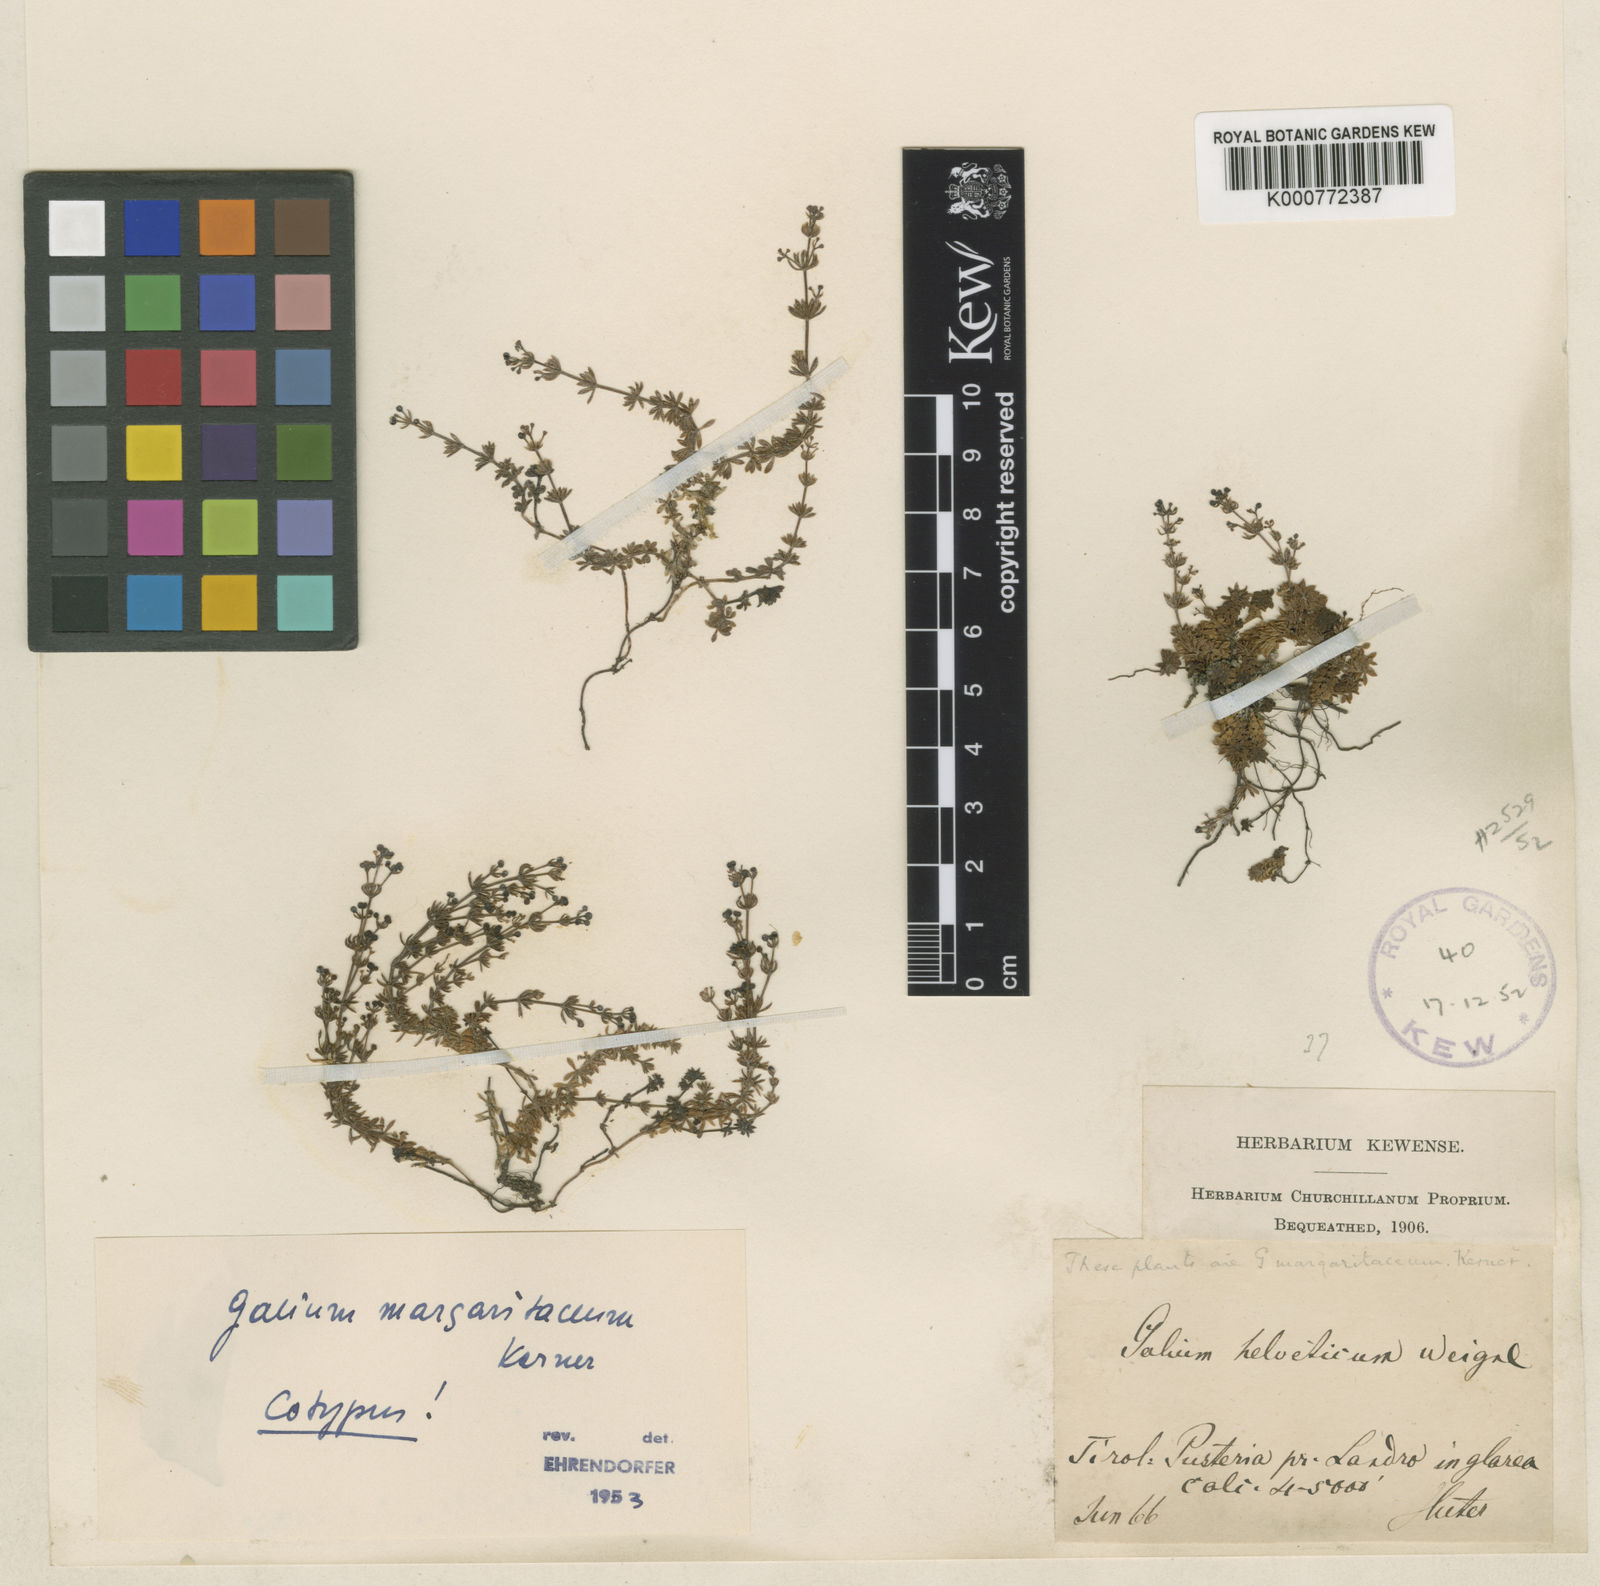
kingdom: Plantae
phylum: Tracheophyta
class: Magnoliopsida
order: Gentianales
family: Rubiaceae
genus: Galium
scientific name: Galium margaritaceum
